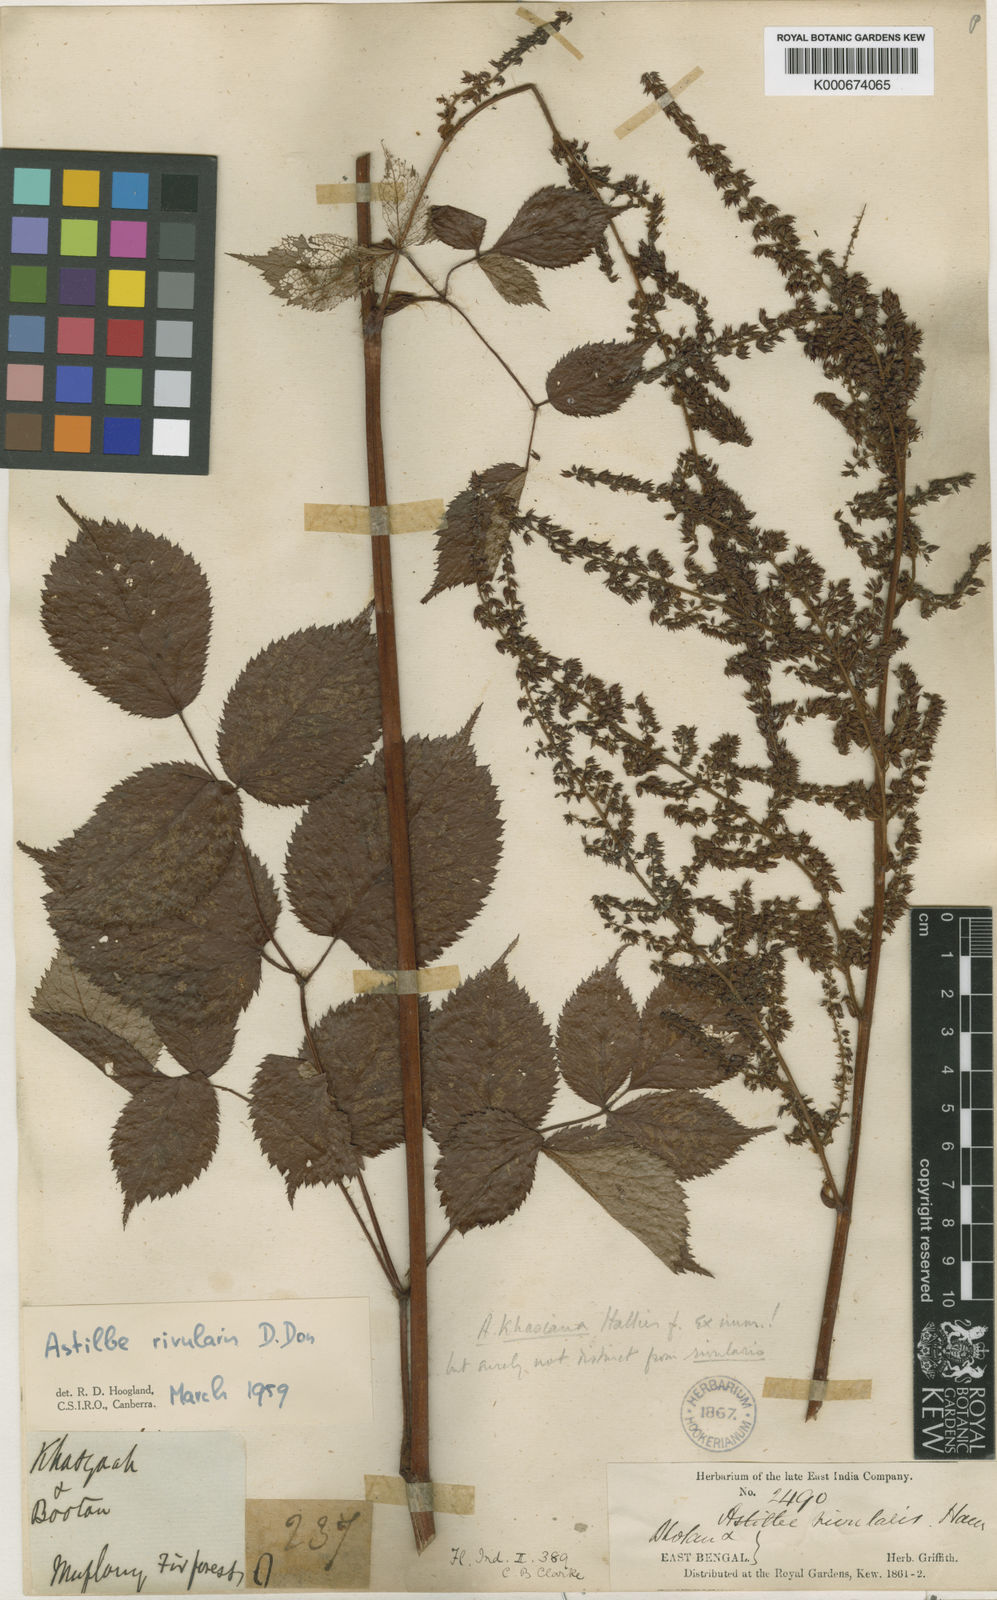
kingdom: Plantae
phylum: Tracheophyta
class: Magnoliopsida
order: Saxifragales
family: Saxifragaceae
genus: Astilbe
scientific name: Astilbe rivularis
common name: Tall false-buck's-beard
